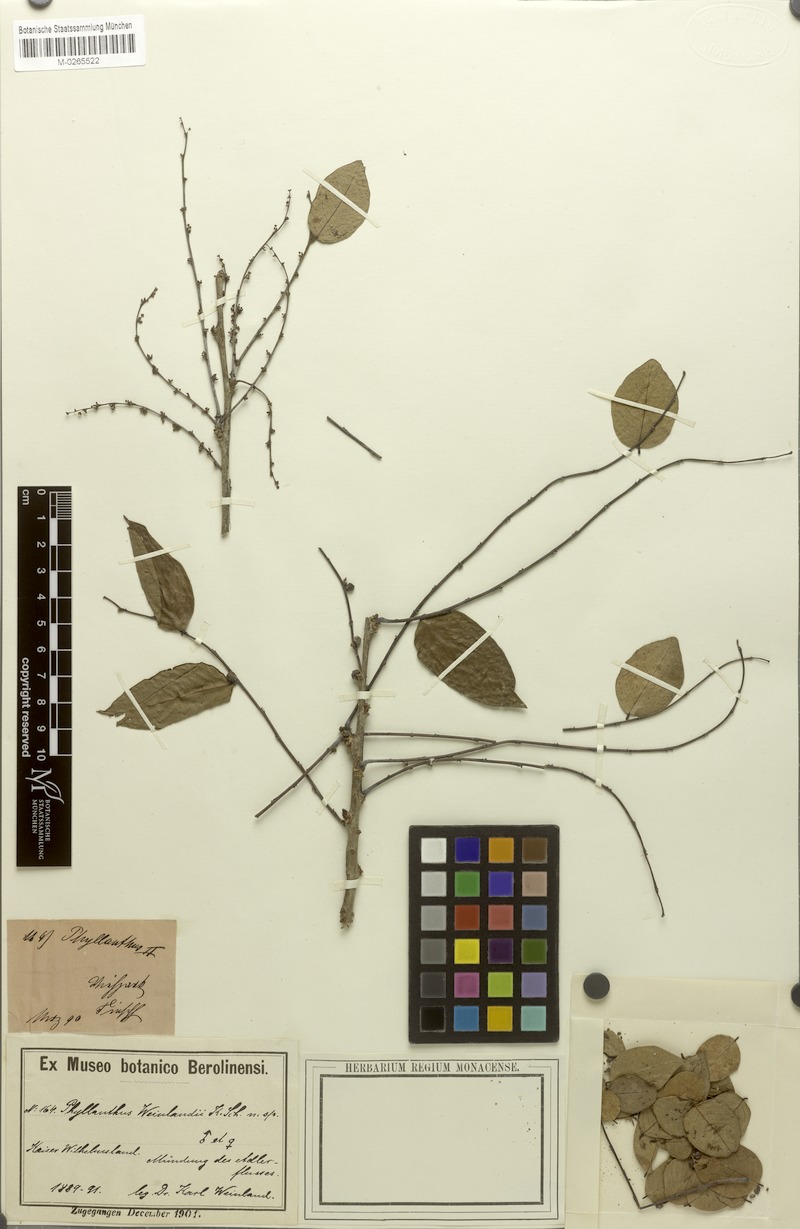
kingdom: Plantae
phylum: Tracheophyta
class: Magnoliopsida
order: Malpighiales
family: Phyllanthaceae
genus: Phyllanthus
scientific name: Phyllanthus reticulatus
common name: Potato bush
